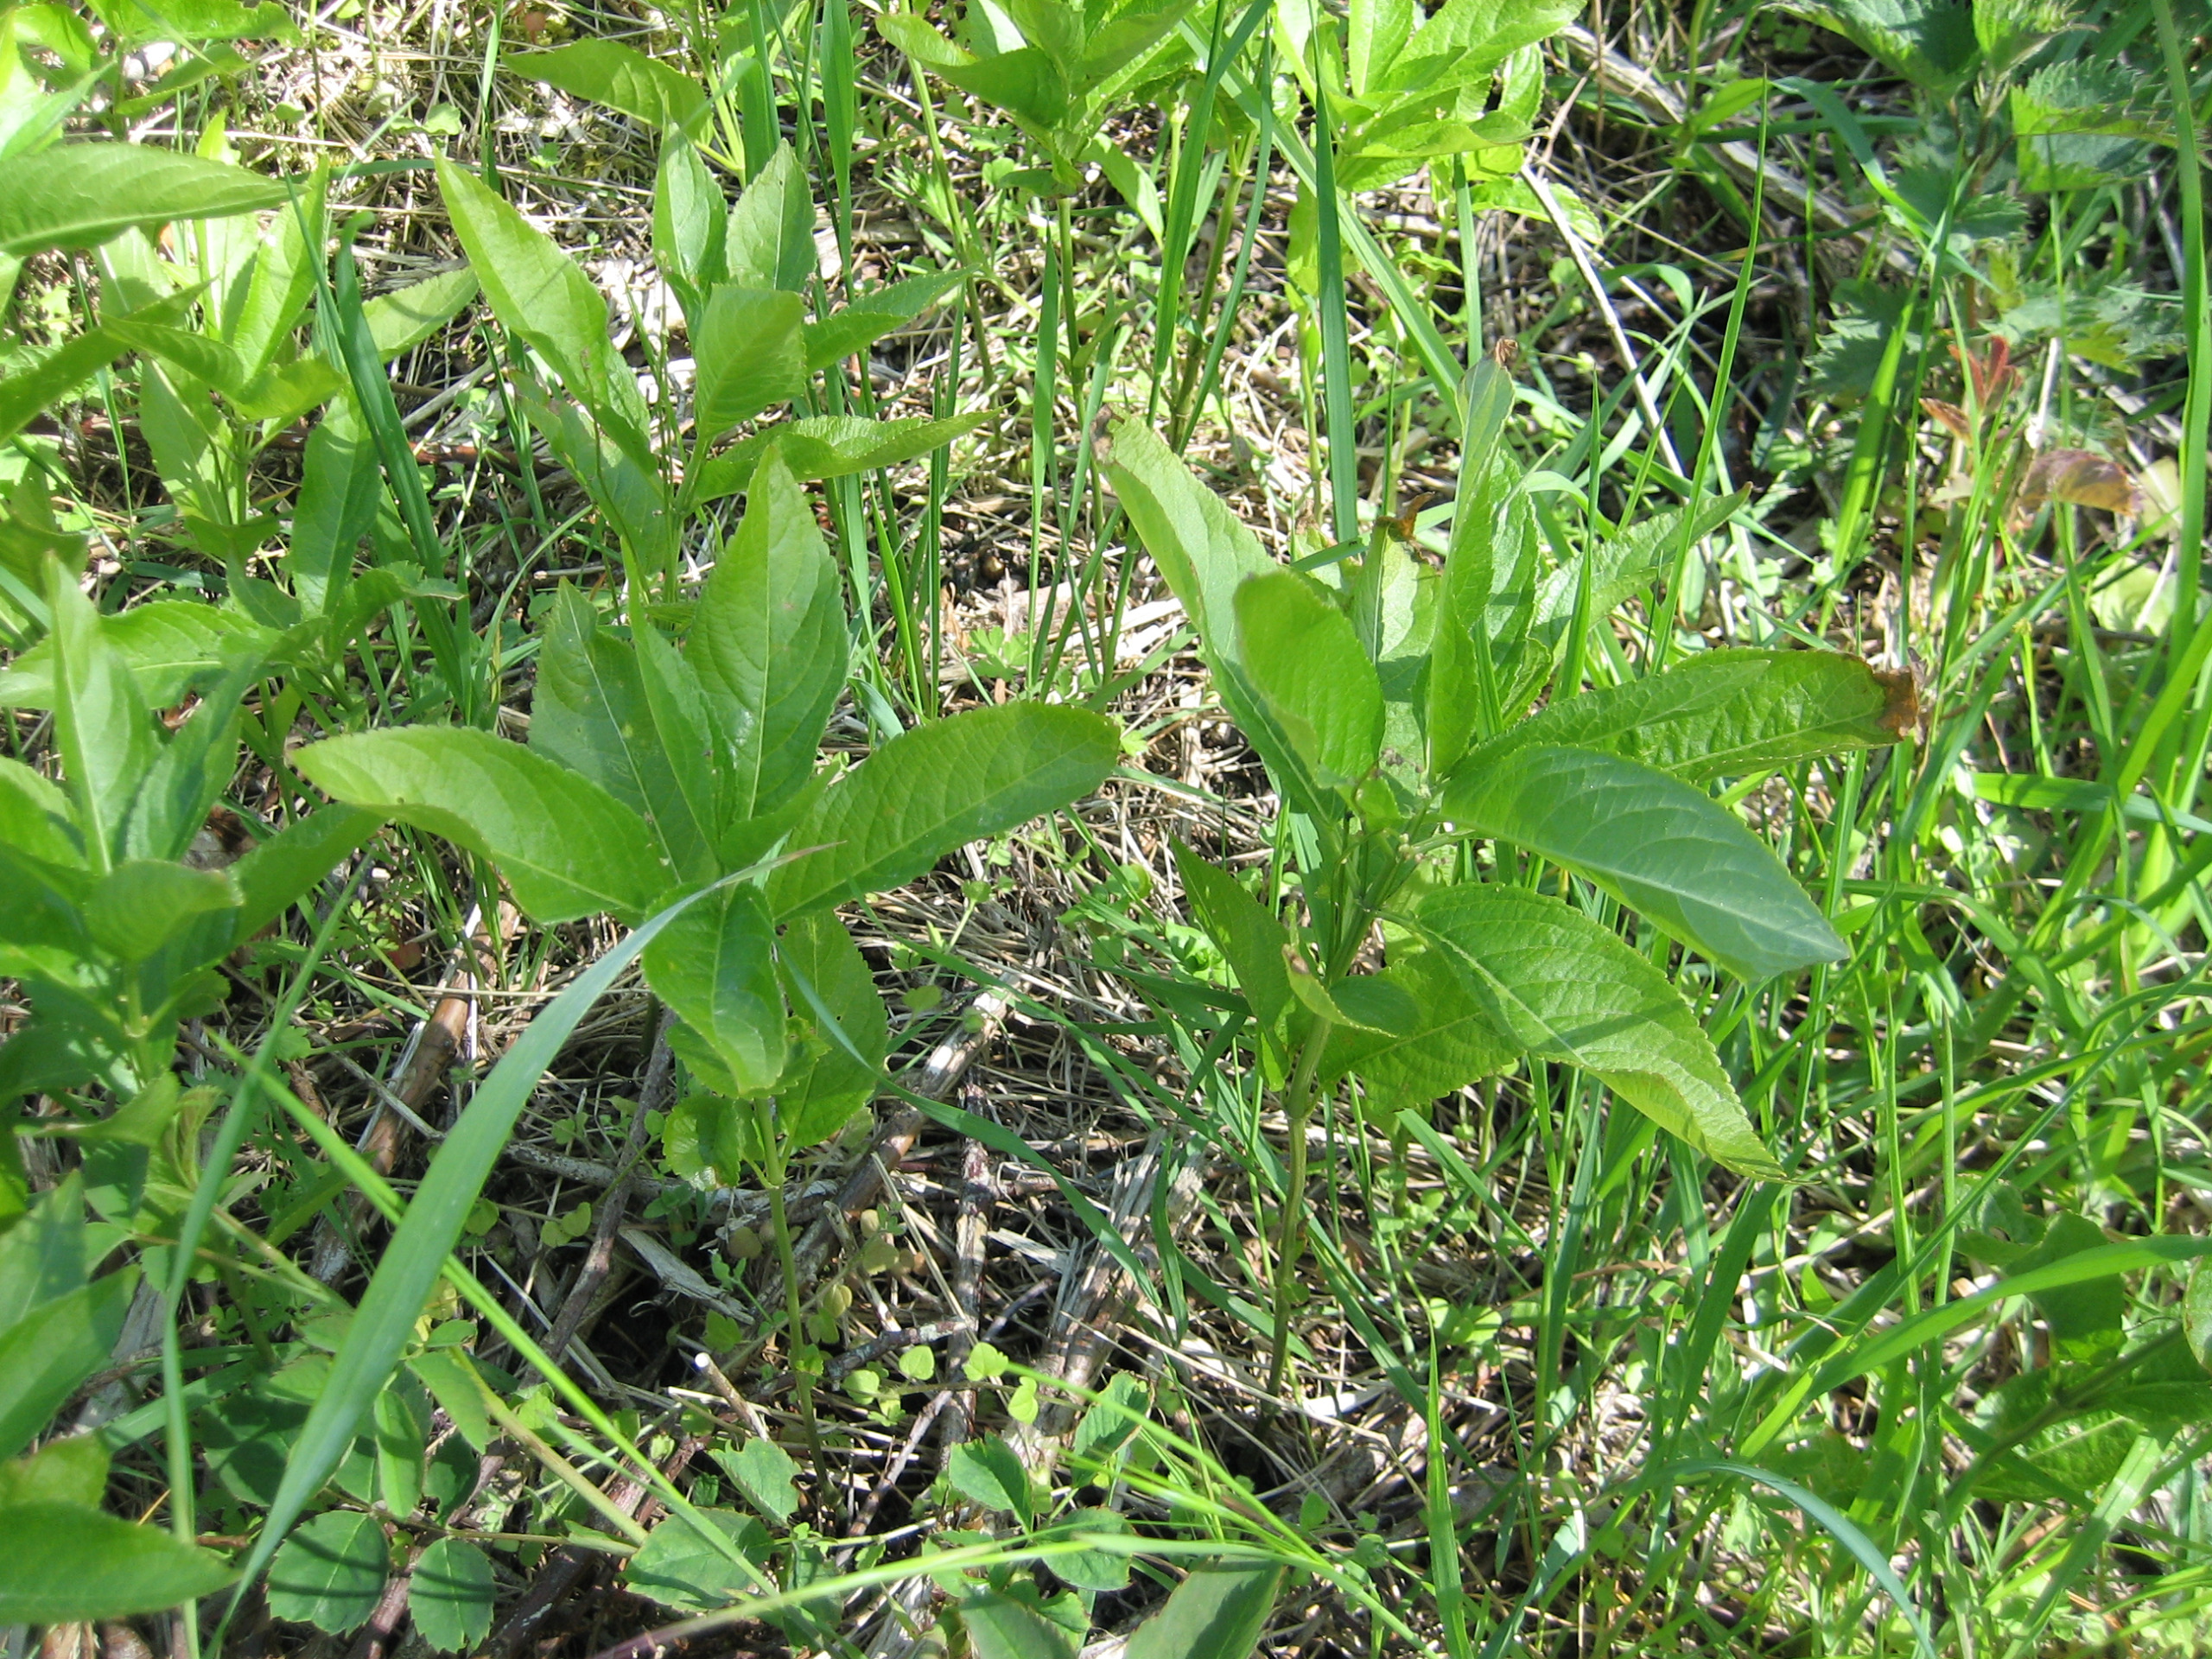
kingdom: Plantae
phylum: Tracheophyta
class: Magnoliopsida
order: Malpighiales
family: Euphorbiaceae
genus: Mercurialis
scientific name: Mercurialis perennis
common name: Almindelig bingelurt
